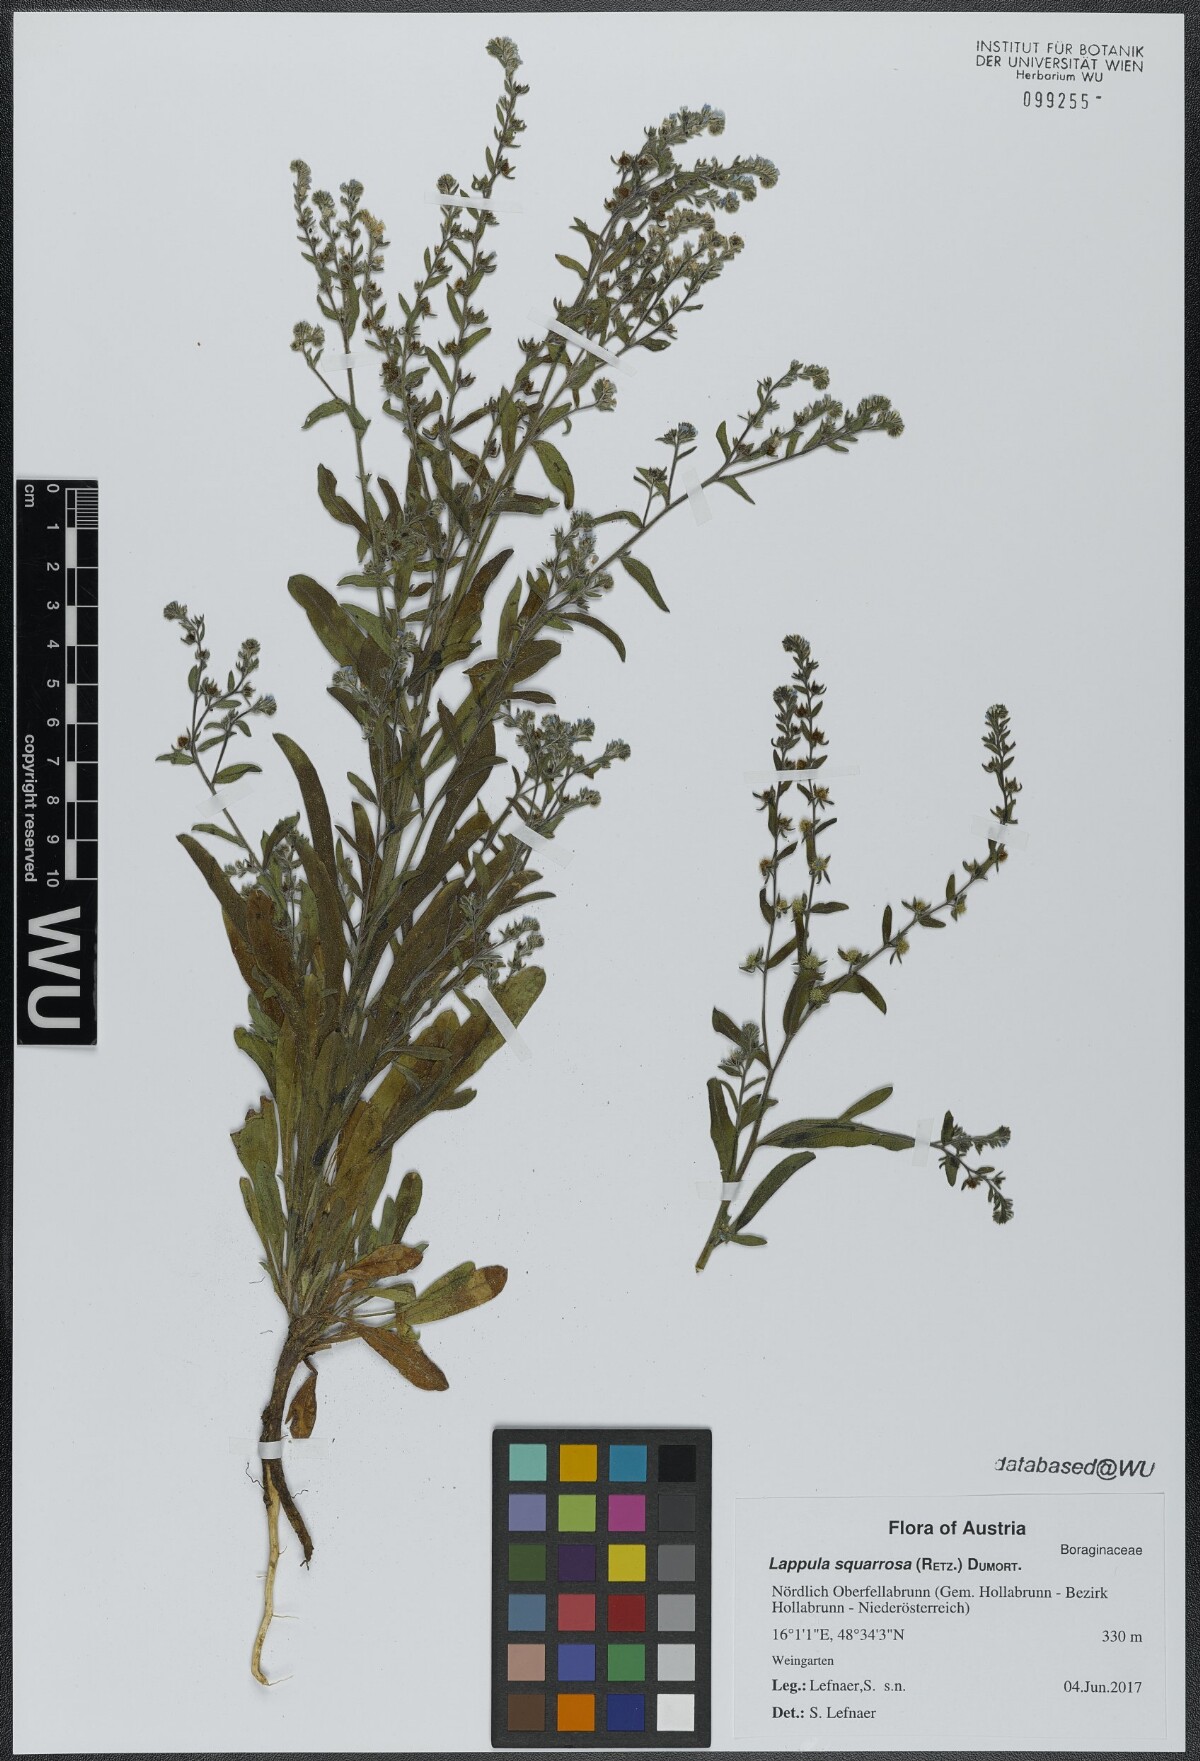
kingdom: Plantae
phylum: Tracheophyta
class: Magnoliopsida
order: Boraginales
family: Boraginaceae
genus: Lappula
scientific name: Lappula squarrosa
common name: European stickseed
